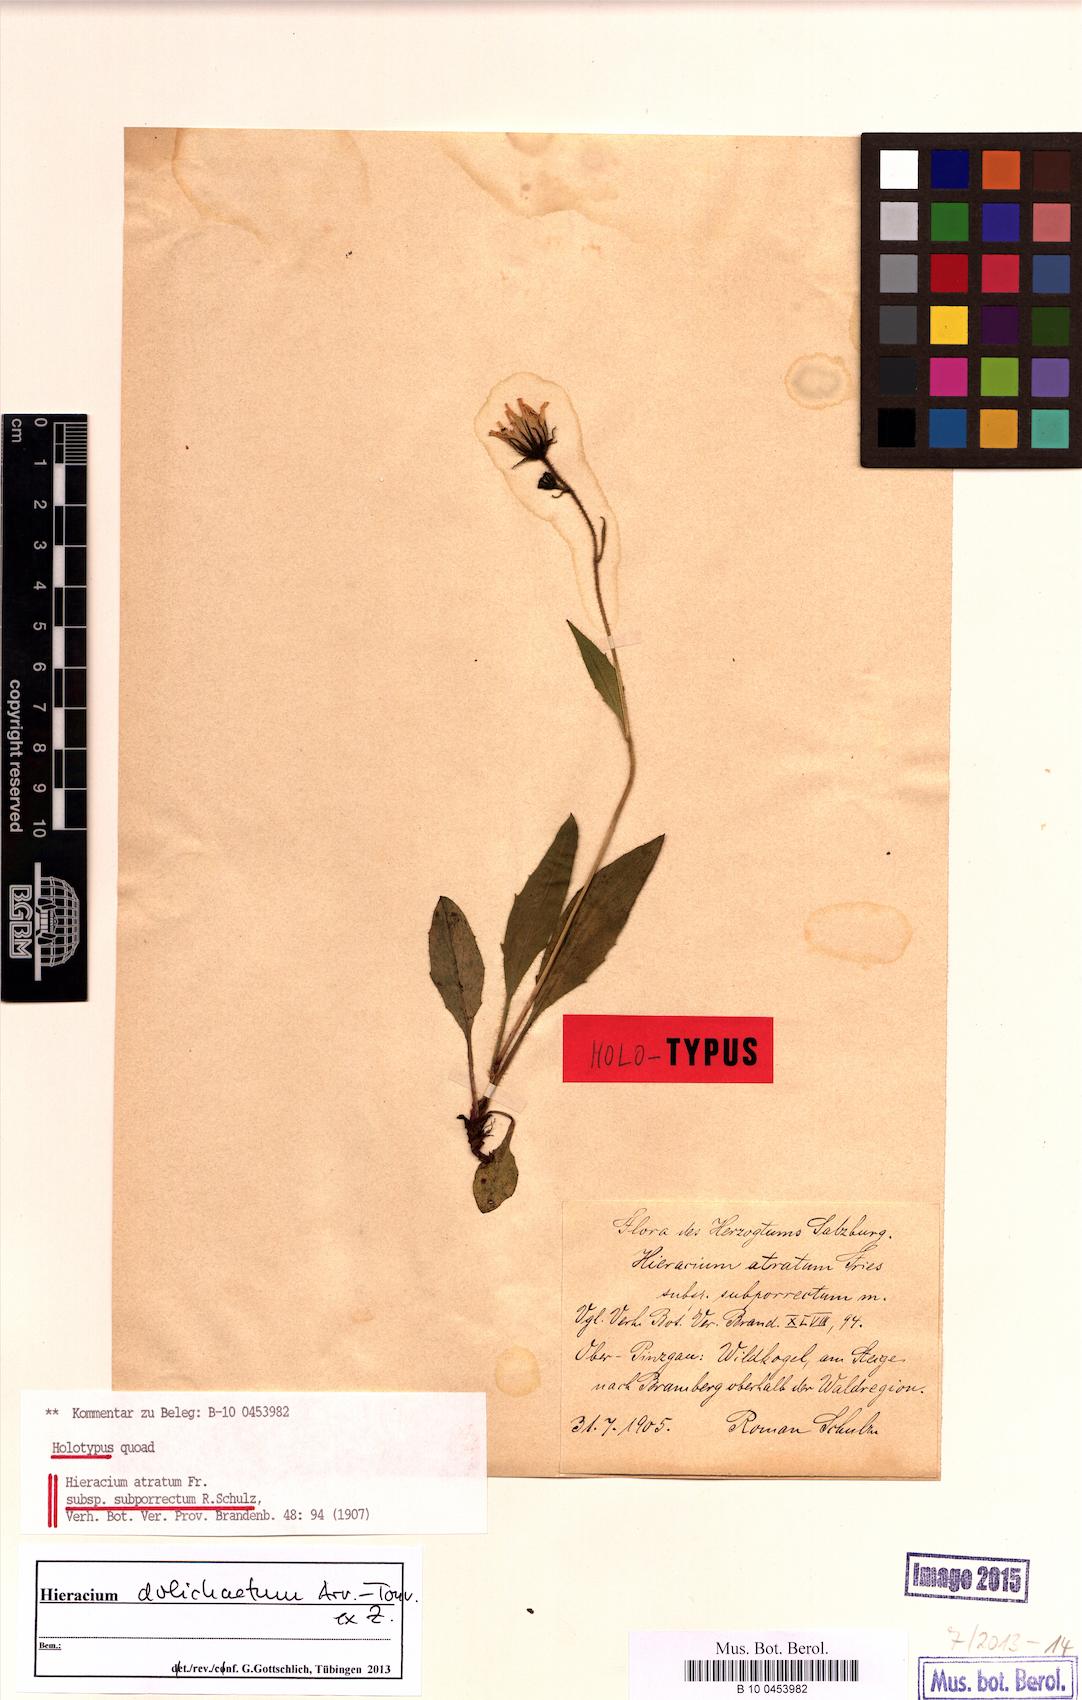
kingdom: Plantae
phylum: Tracheophyta
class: Magnoliopsida
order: Asterales
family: Asteraceae
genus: Hieracium
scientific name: Hieracium dolichaetum
